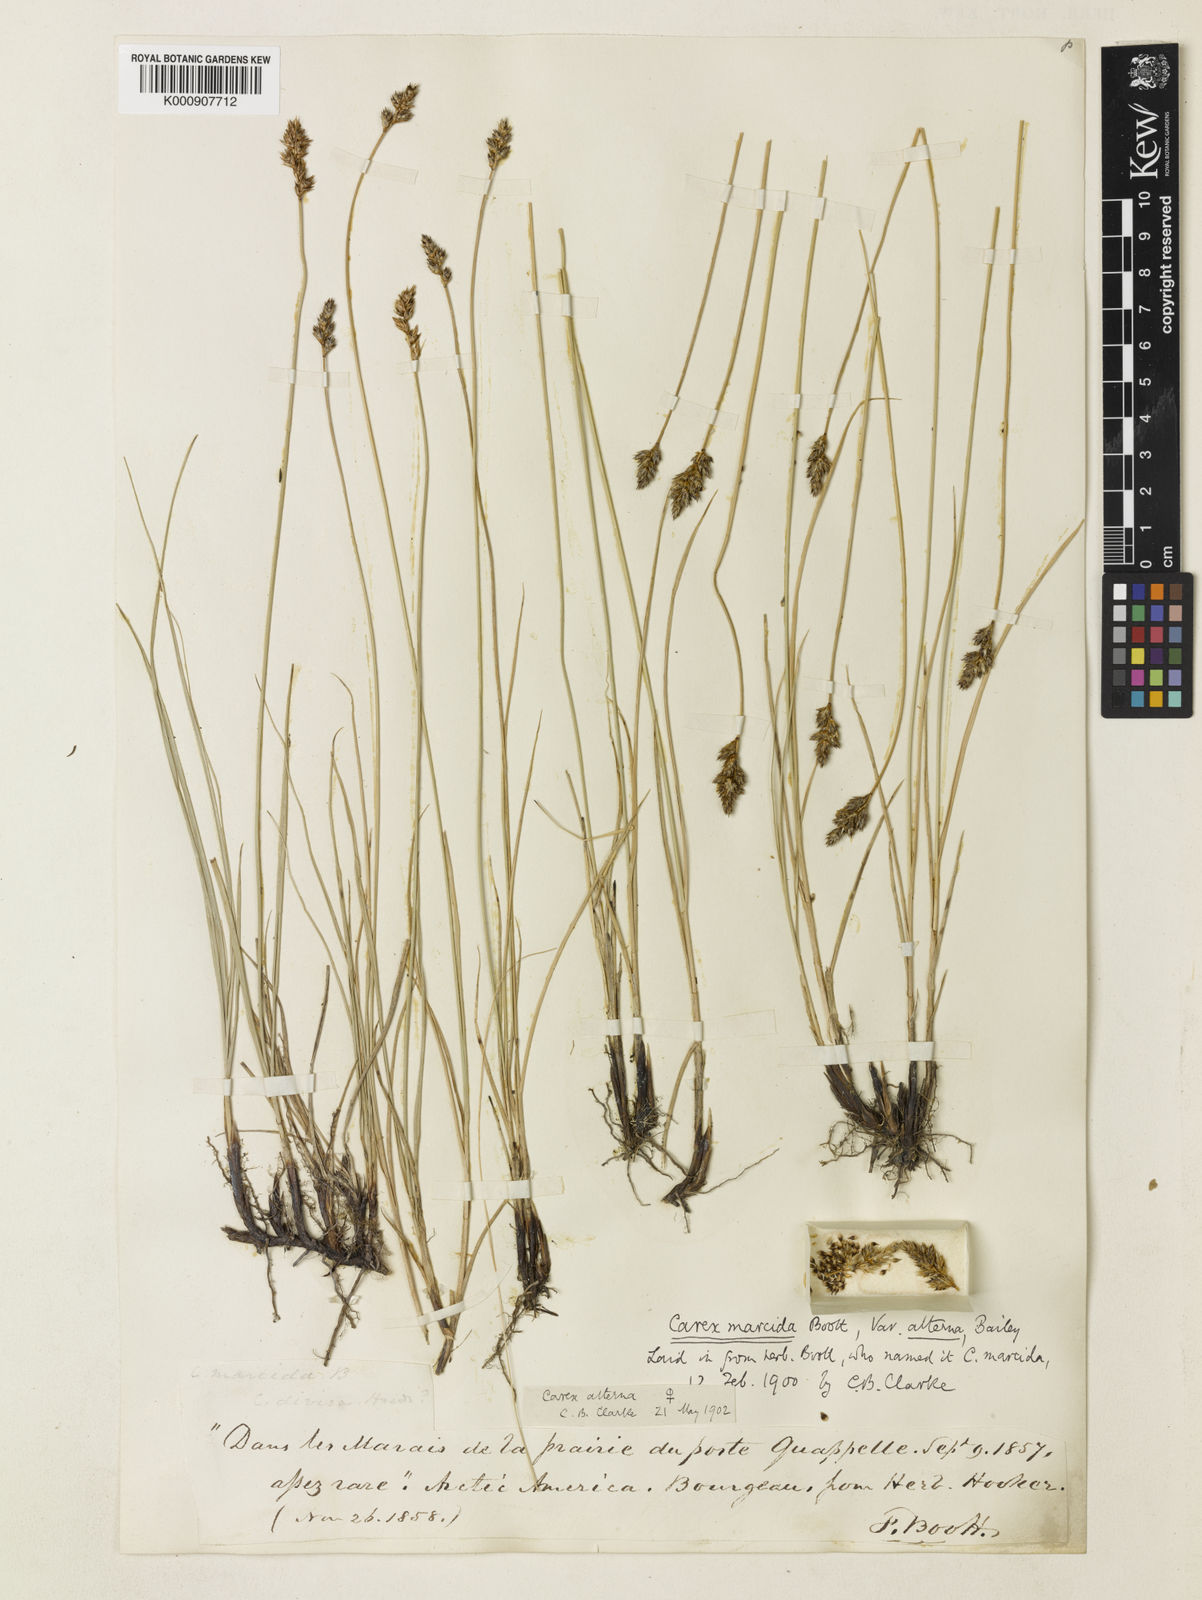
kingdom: Plantae
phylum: Tracheophyta
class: Liliopsida
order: Poales
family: Cyperaceae
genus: Carex
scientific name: Carex praegracilis
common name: Black creeper sedge
